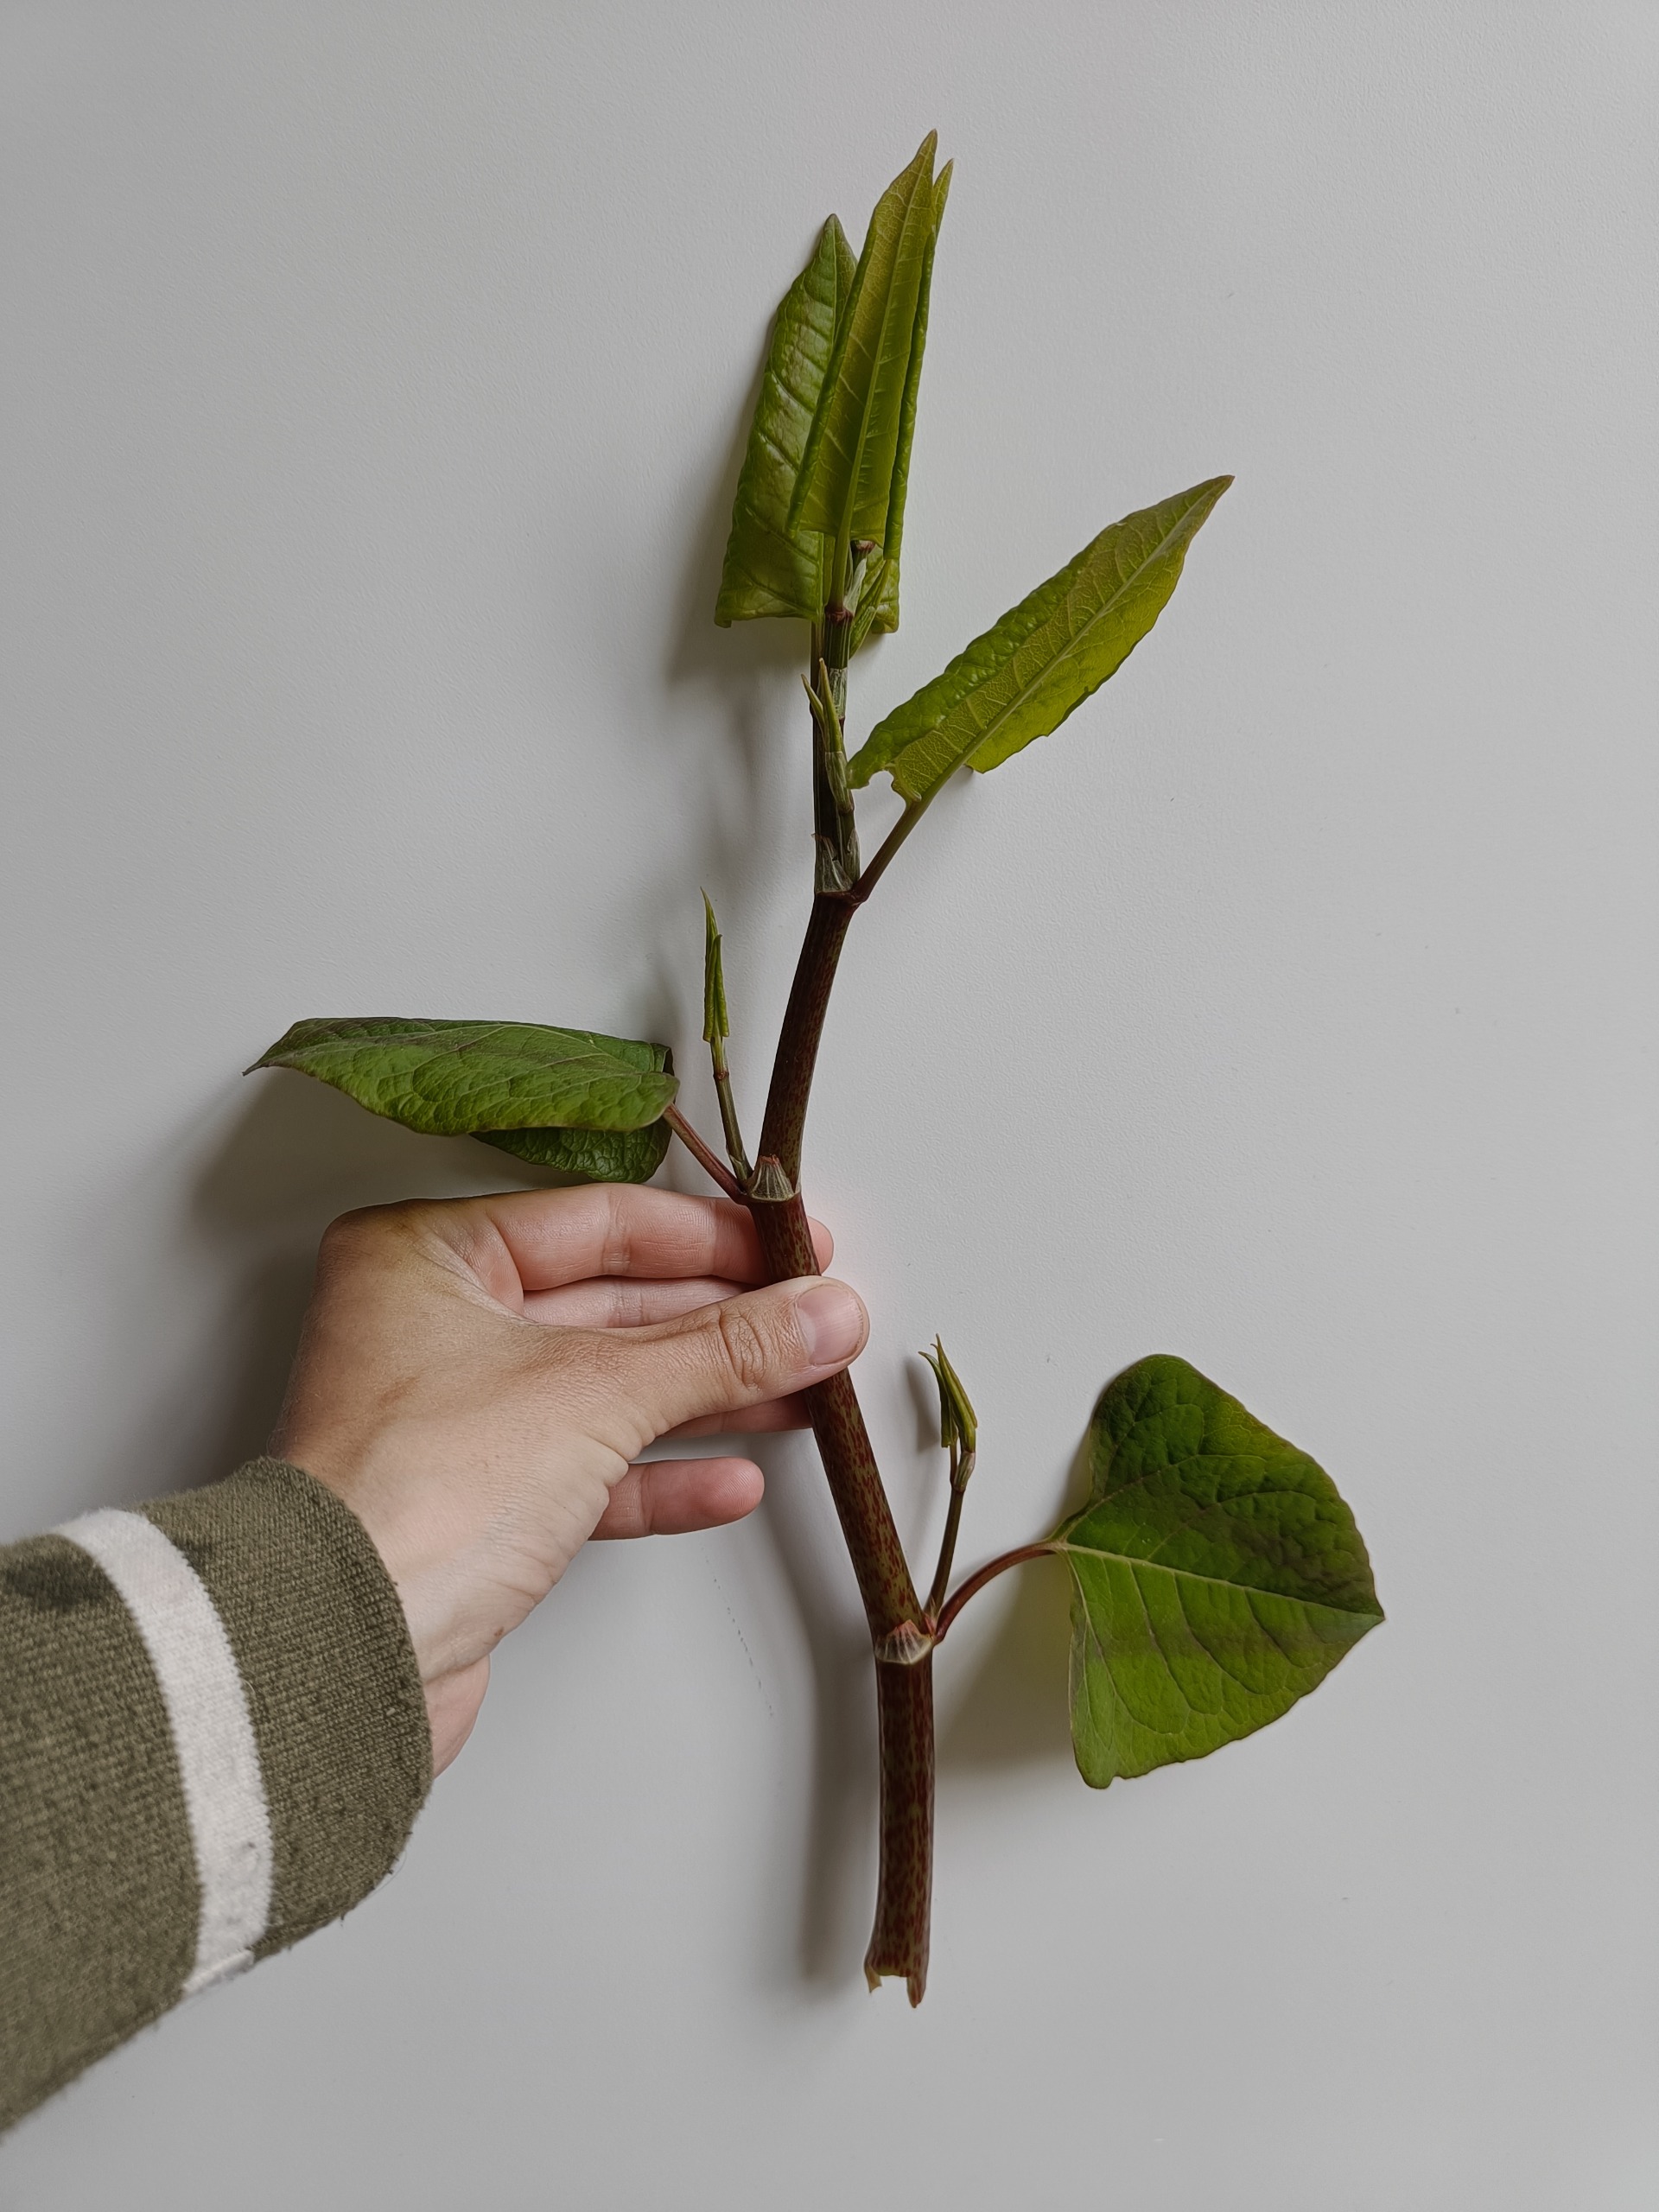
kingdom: Plantae
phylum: Tracheophyta
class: Magnoliopsida
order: Caryophyllales
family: Polygonaceae
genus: Reynoutria
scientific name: Reynoutria
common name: Pileurt (Reynoutria-slægten)
